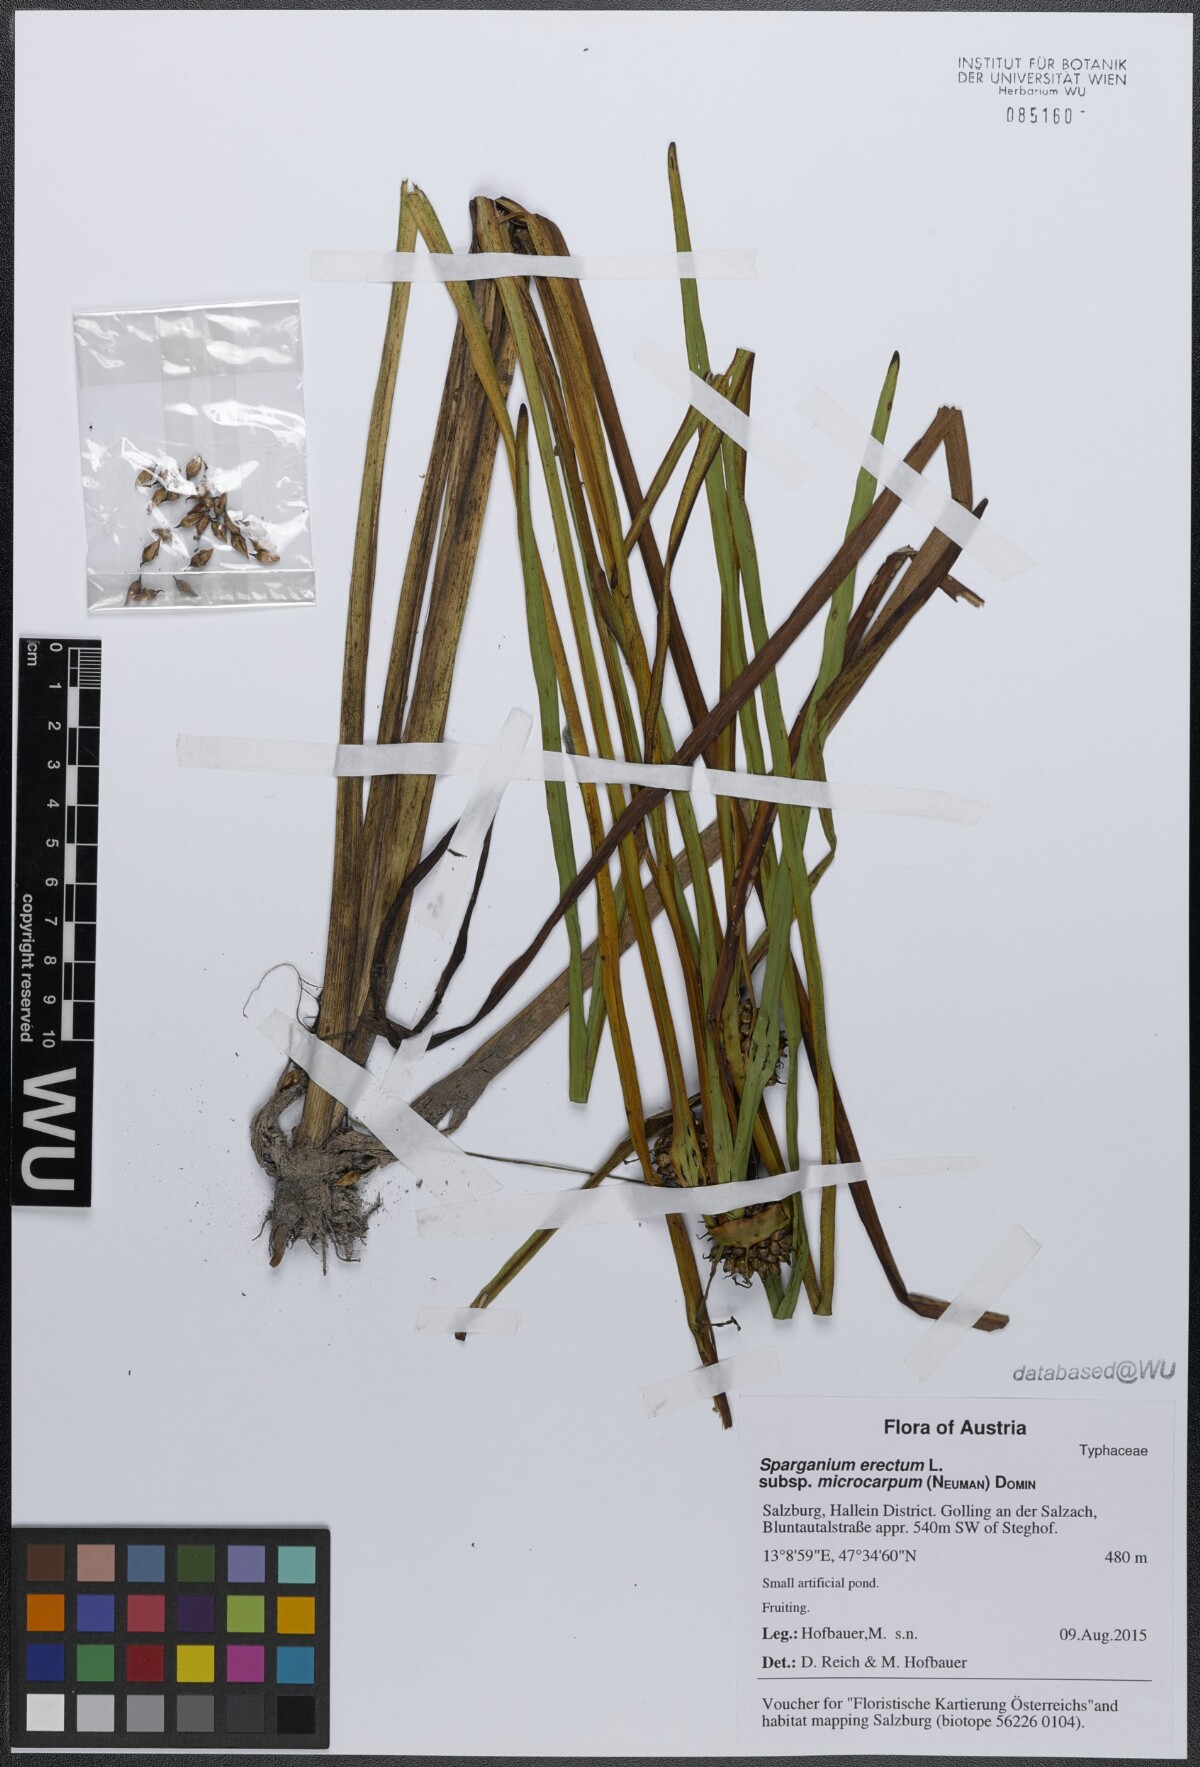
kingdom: Plantae
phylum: Tracheophyta
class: Liliopsida
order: Poales
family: Typhaceae
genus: Sparganium
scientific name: Sparganium erectum
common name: Branched bur-reed
